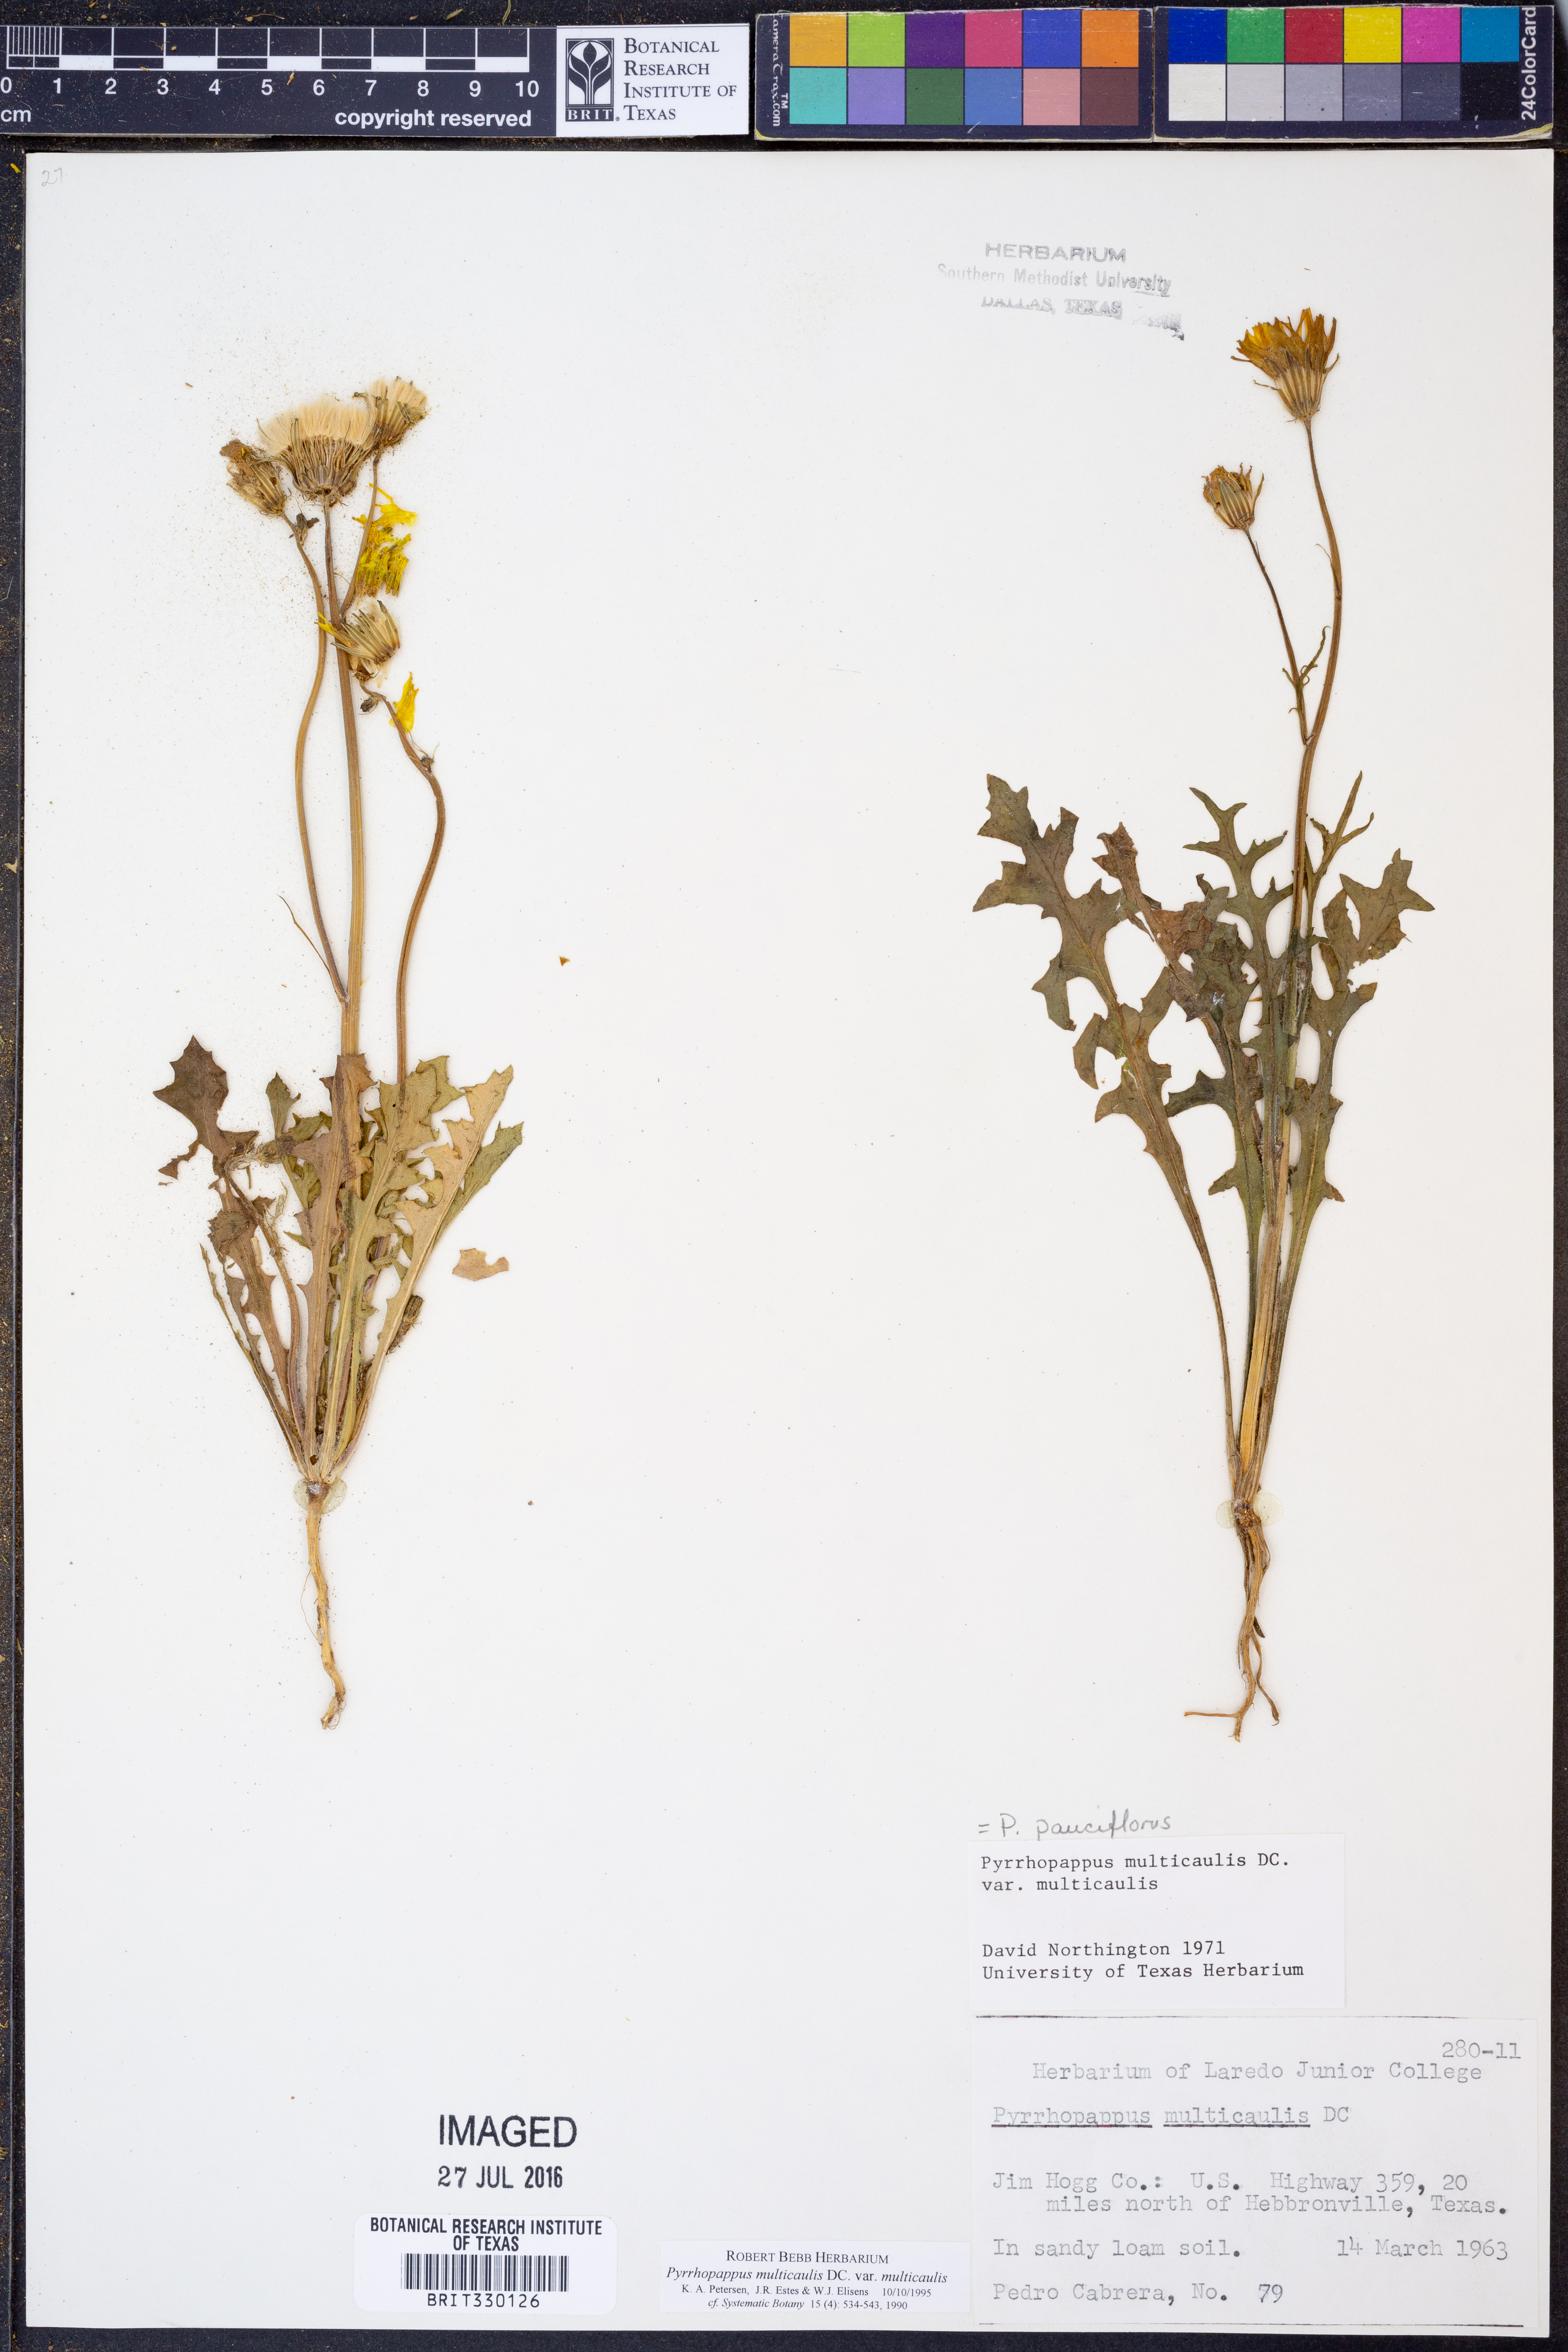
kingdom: Plantae
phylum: Tracheophyta
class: Magnoliopsida
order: Asterales
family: Asteraceae
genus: Pyrrhopappus
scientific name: Pyrrhopappus pauciflorus
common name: Texas false dandelion
